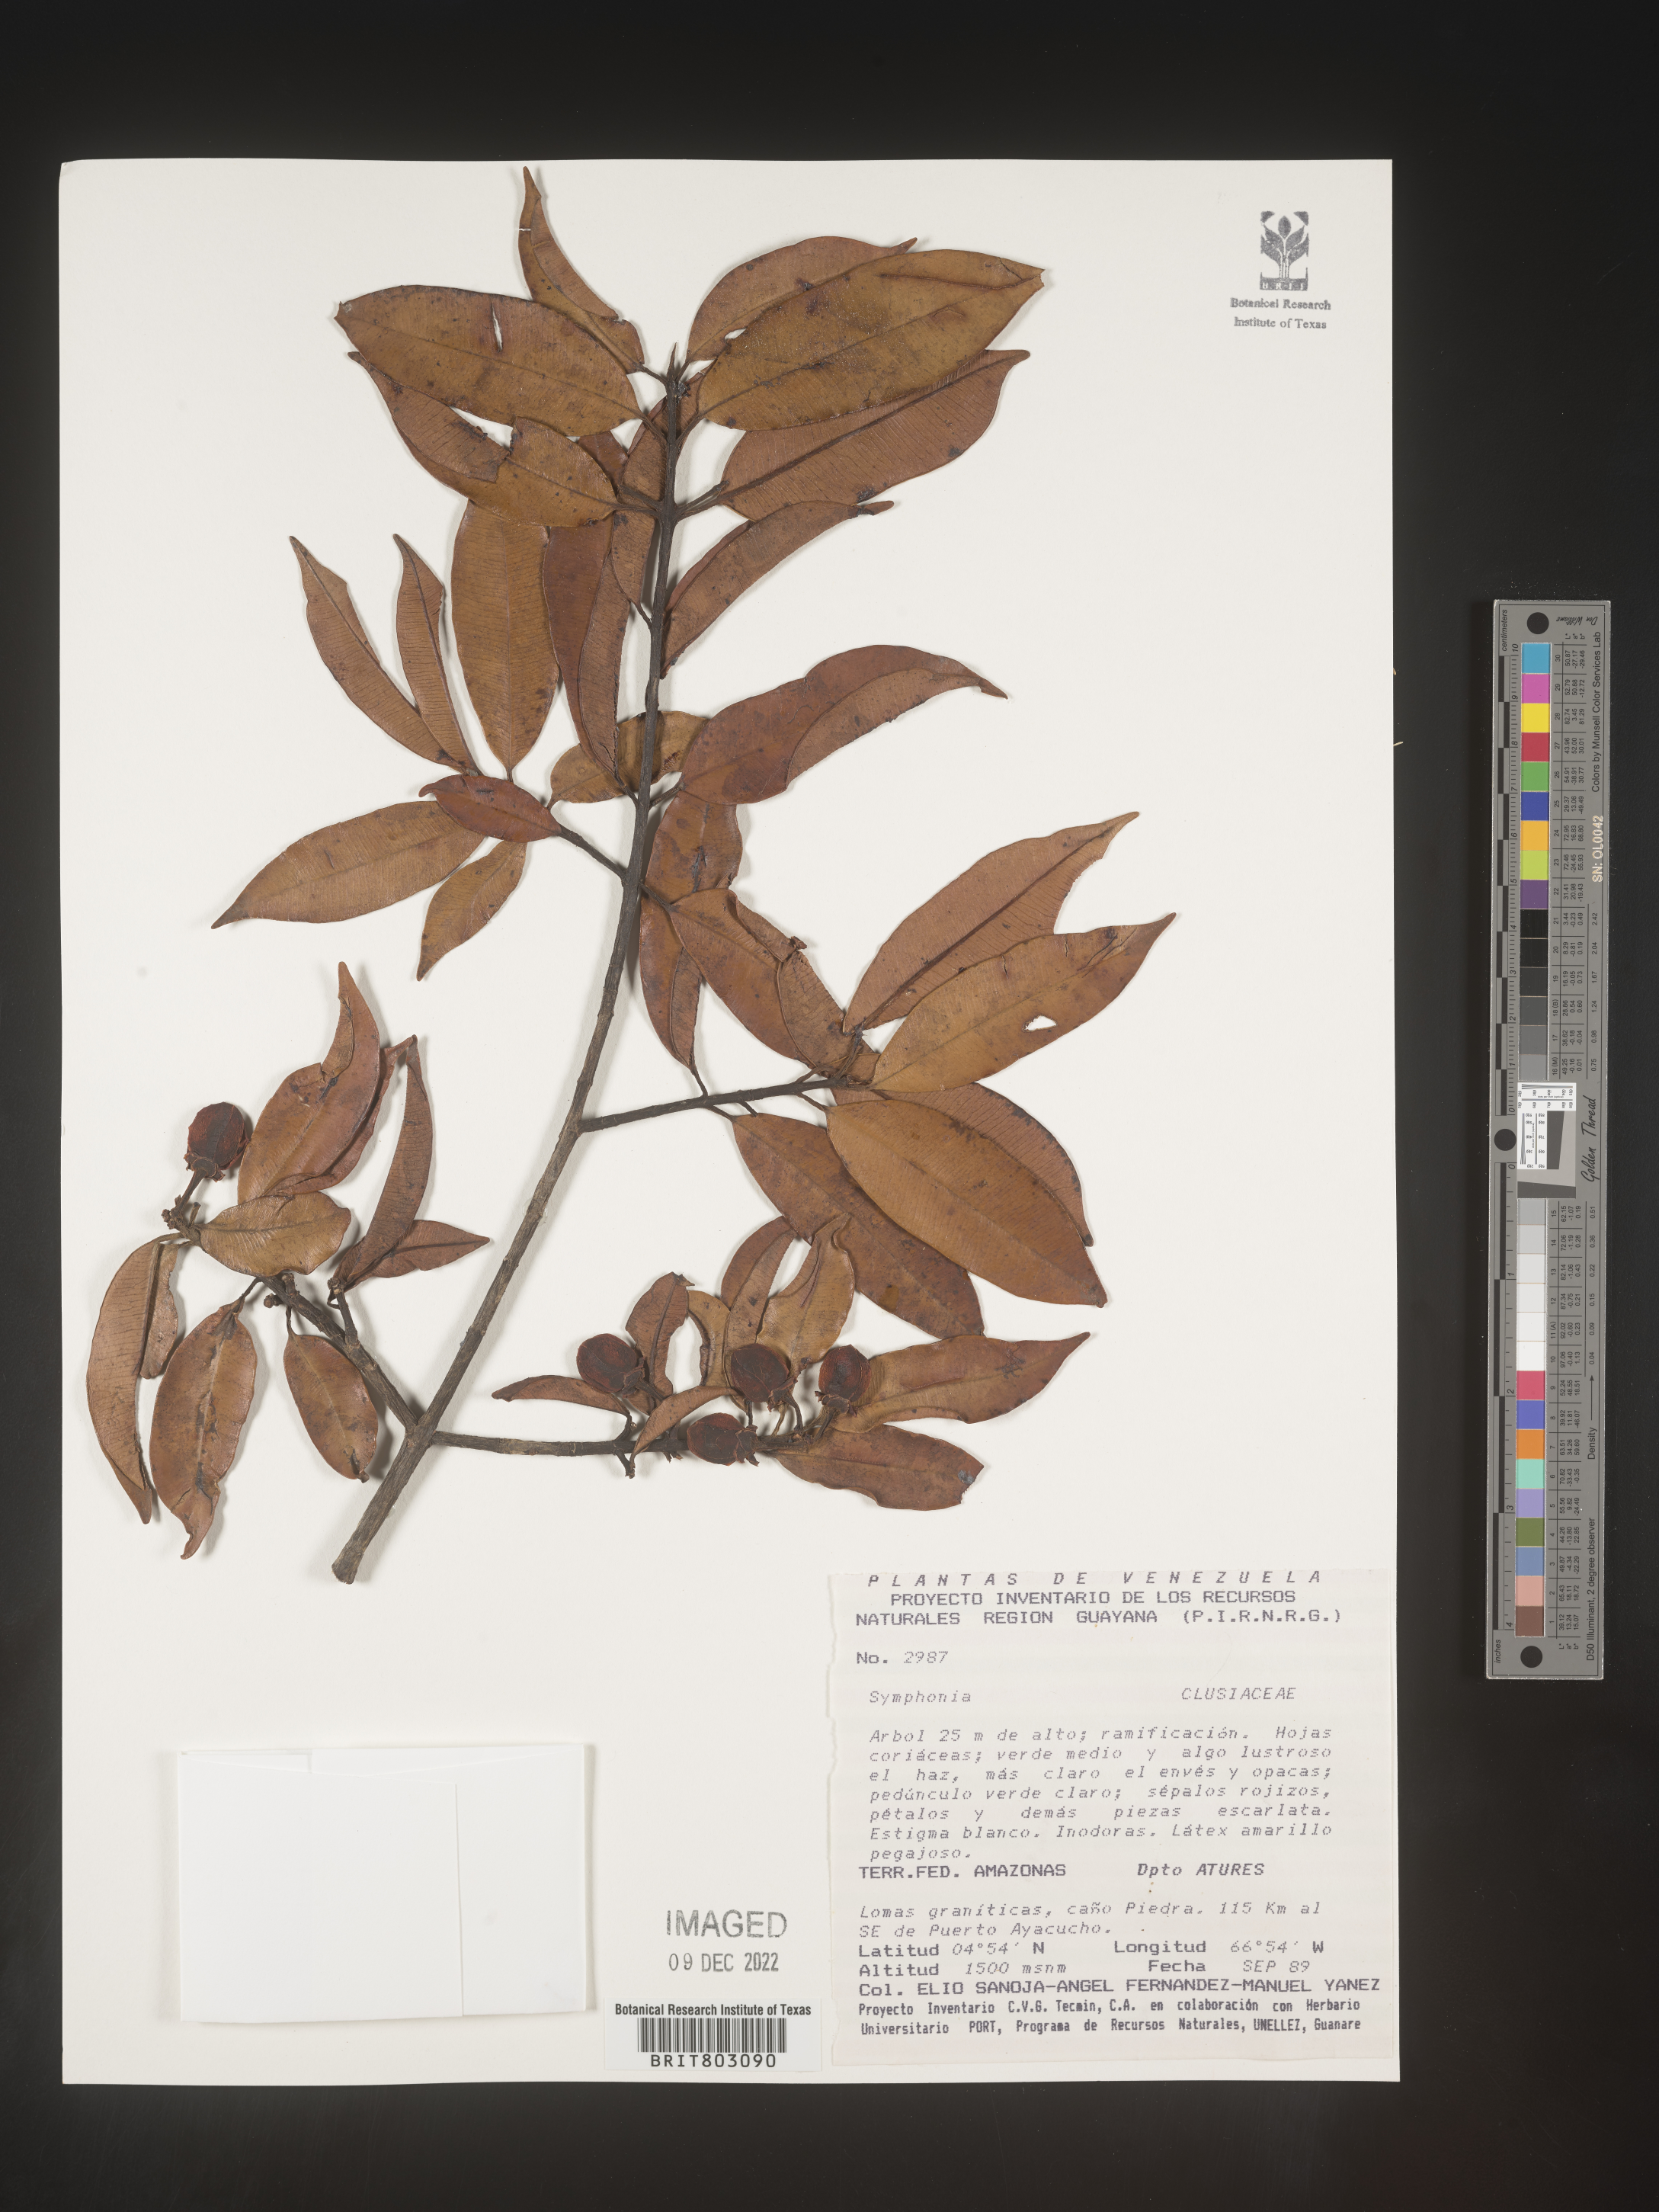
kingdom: Plantae
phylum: Tracheophyta
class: Magnoliopsida
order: Malpighiales
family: Clusiaceae
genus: Symphonia
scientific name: Symphonia
